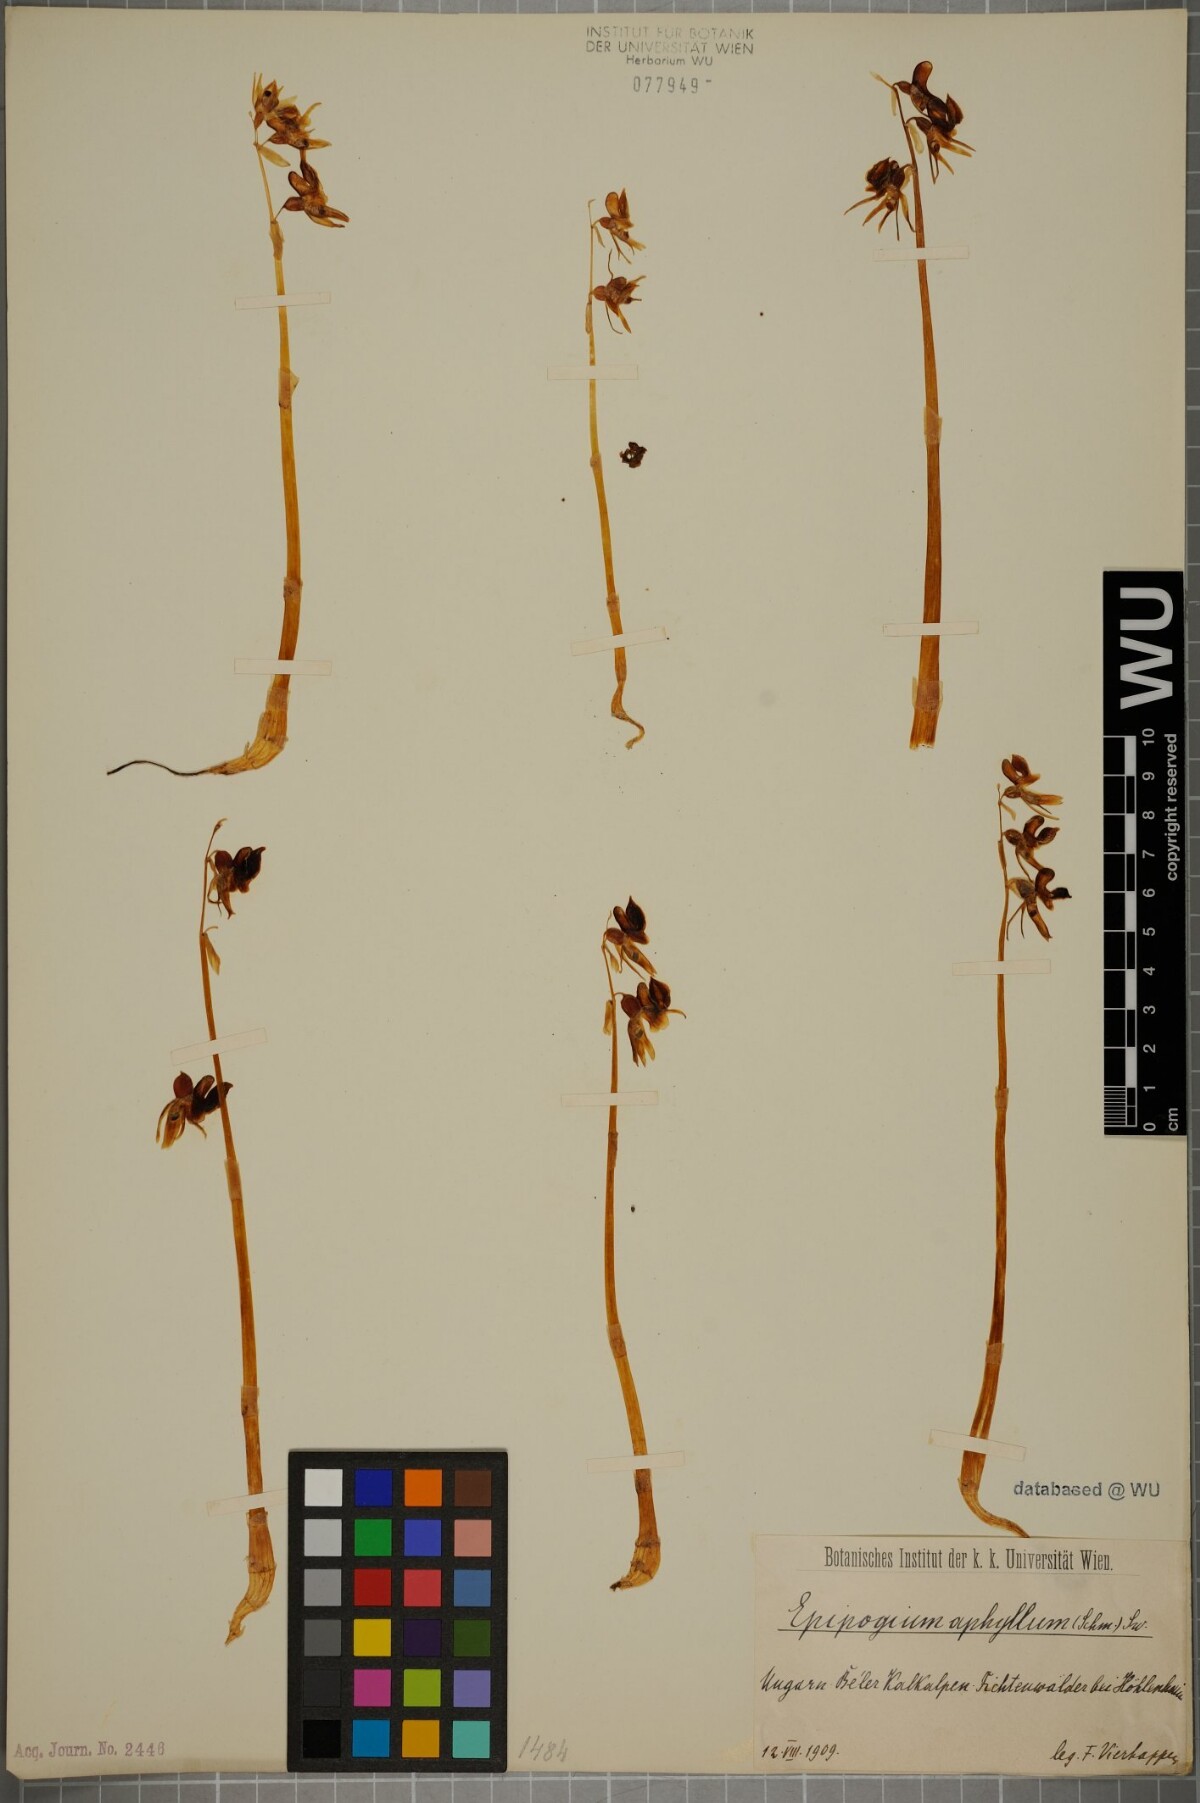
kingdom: Plantae
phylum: Tracheophyta
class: Liliopsida
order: Asparagales
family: Orchidaceae
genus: Epipogium
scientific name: Epipogium aphyllum
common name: Ghost orchid
